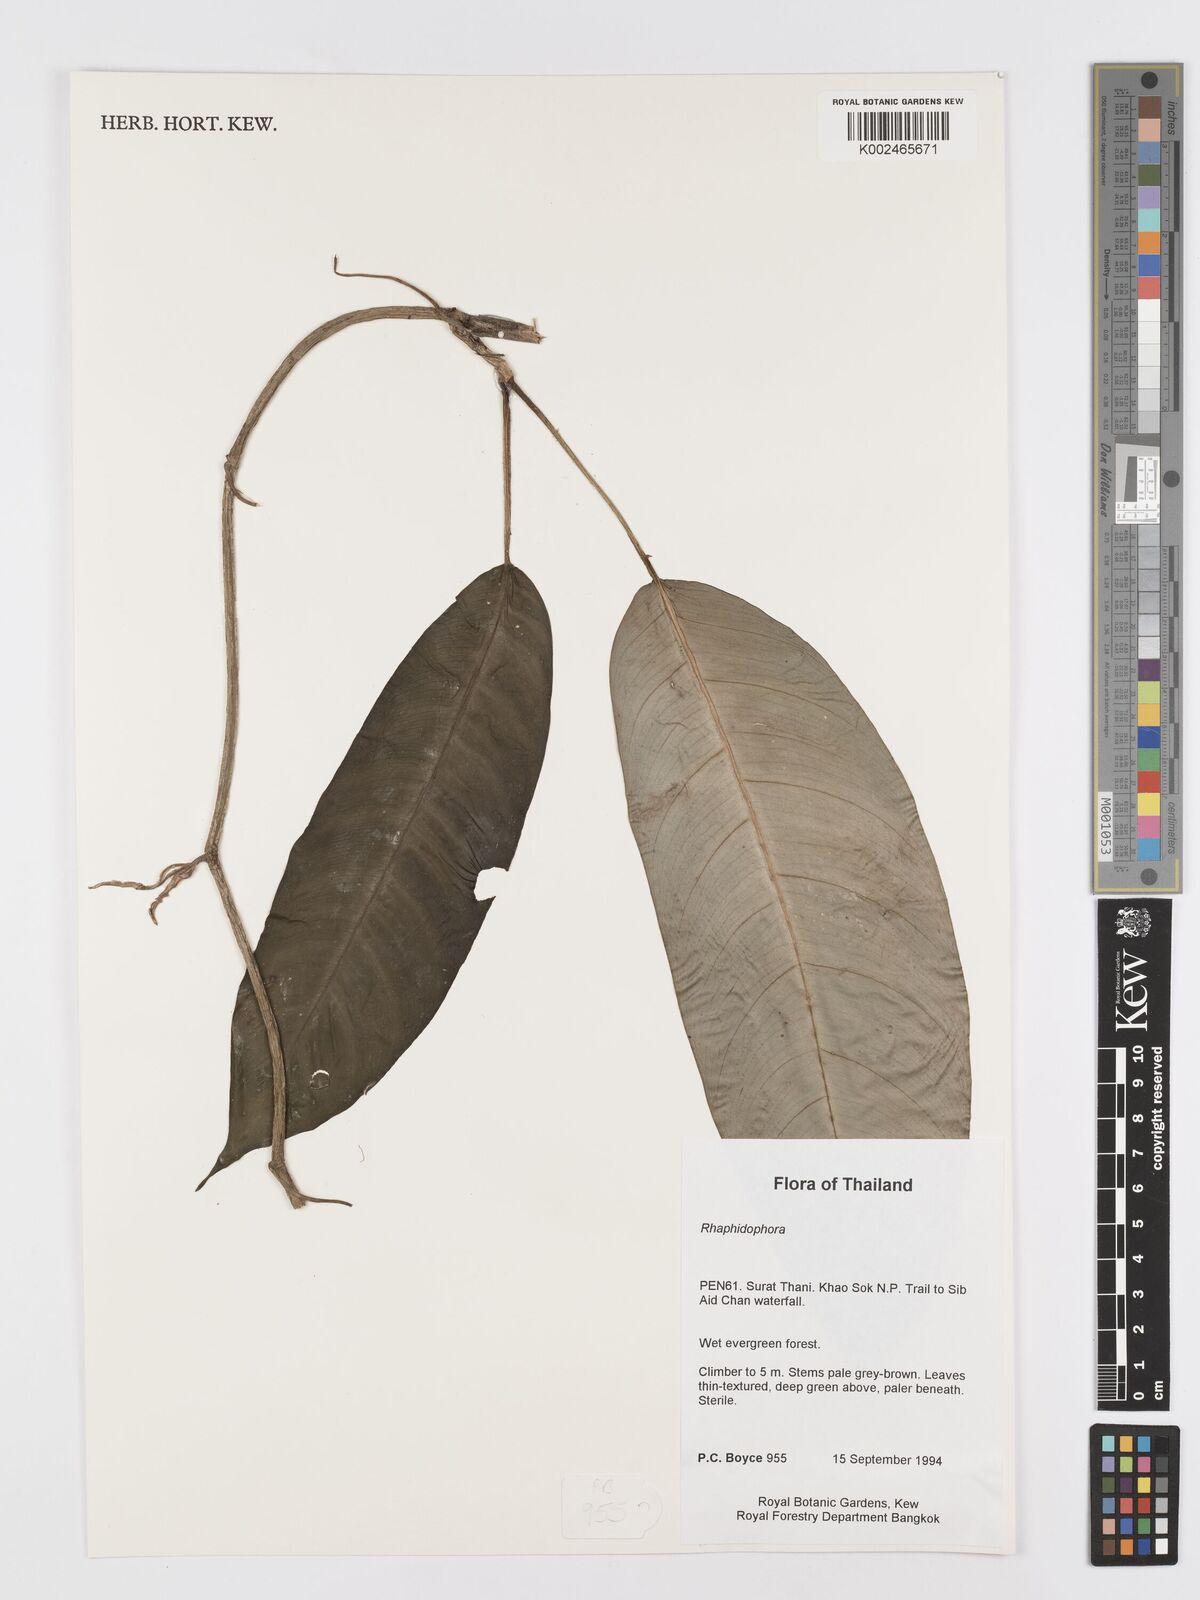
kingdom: Plantae
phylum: Tracheophyta
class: Liliopsida
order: Alismatales
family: Araceae
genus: Rhaphidophora
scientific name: Rhaphidophora lobbii
